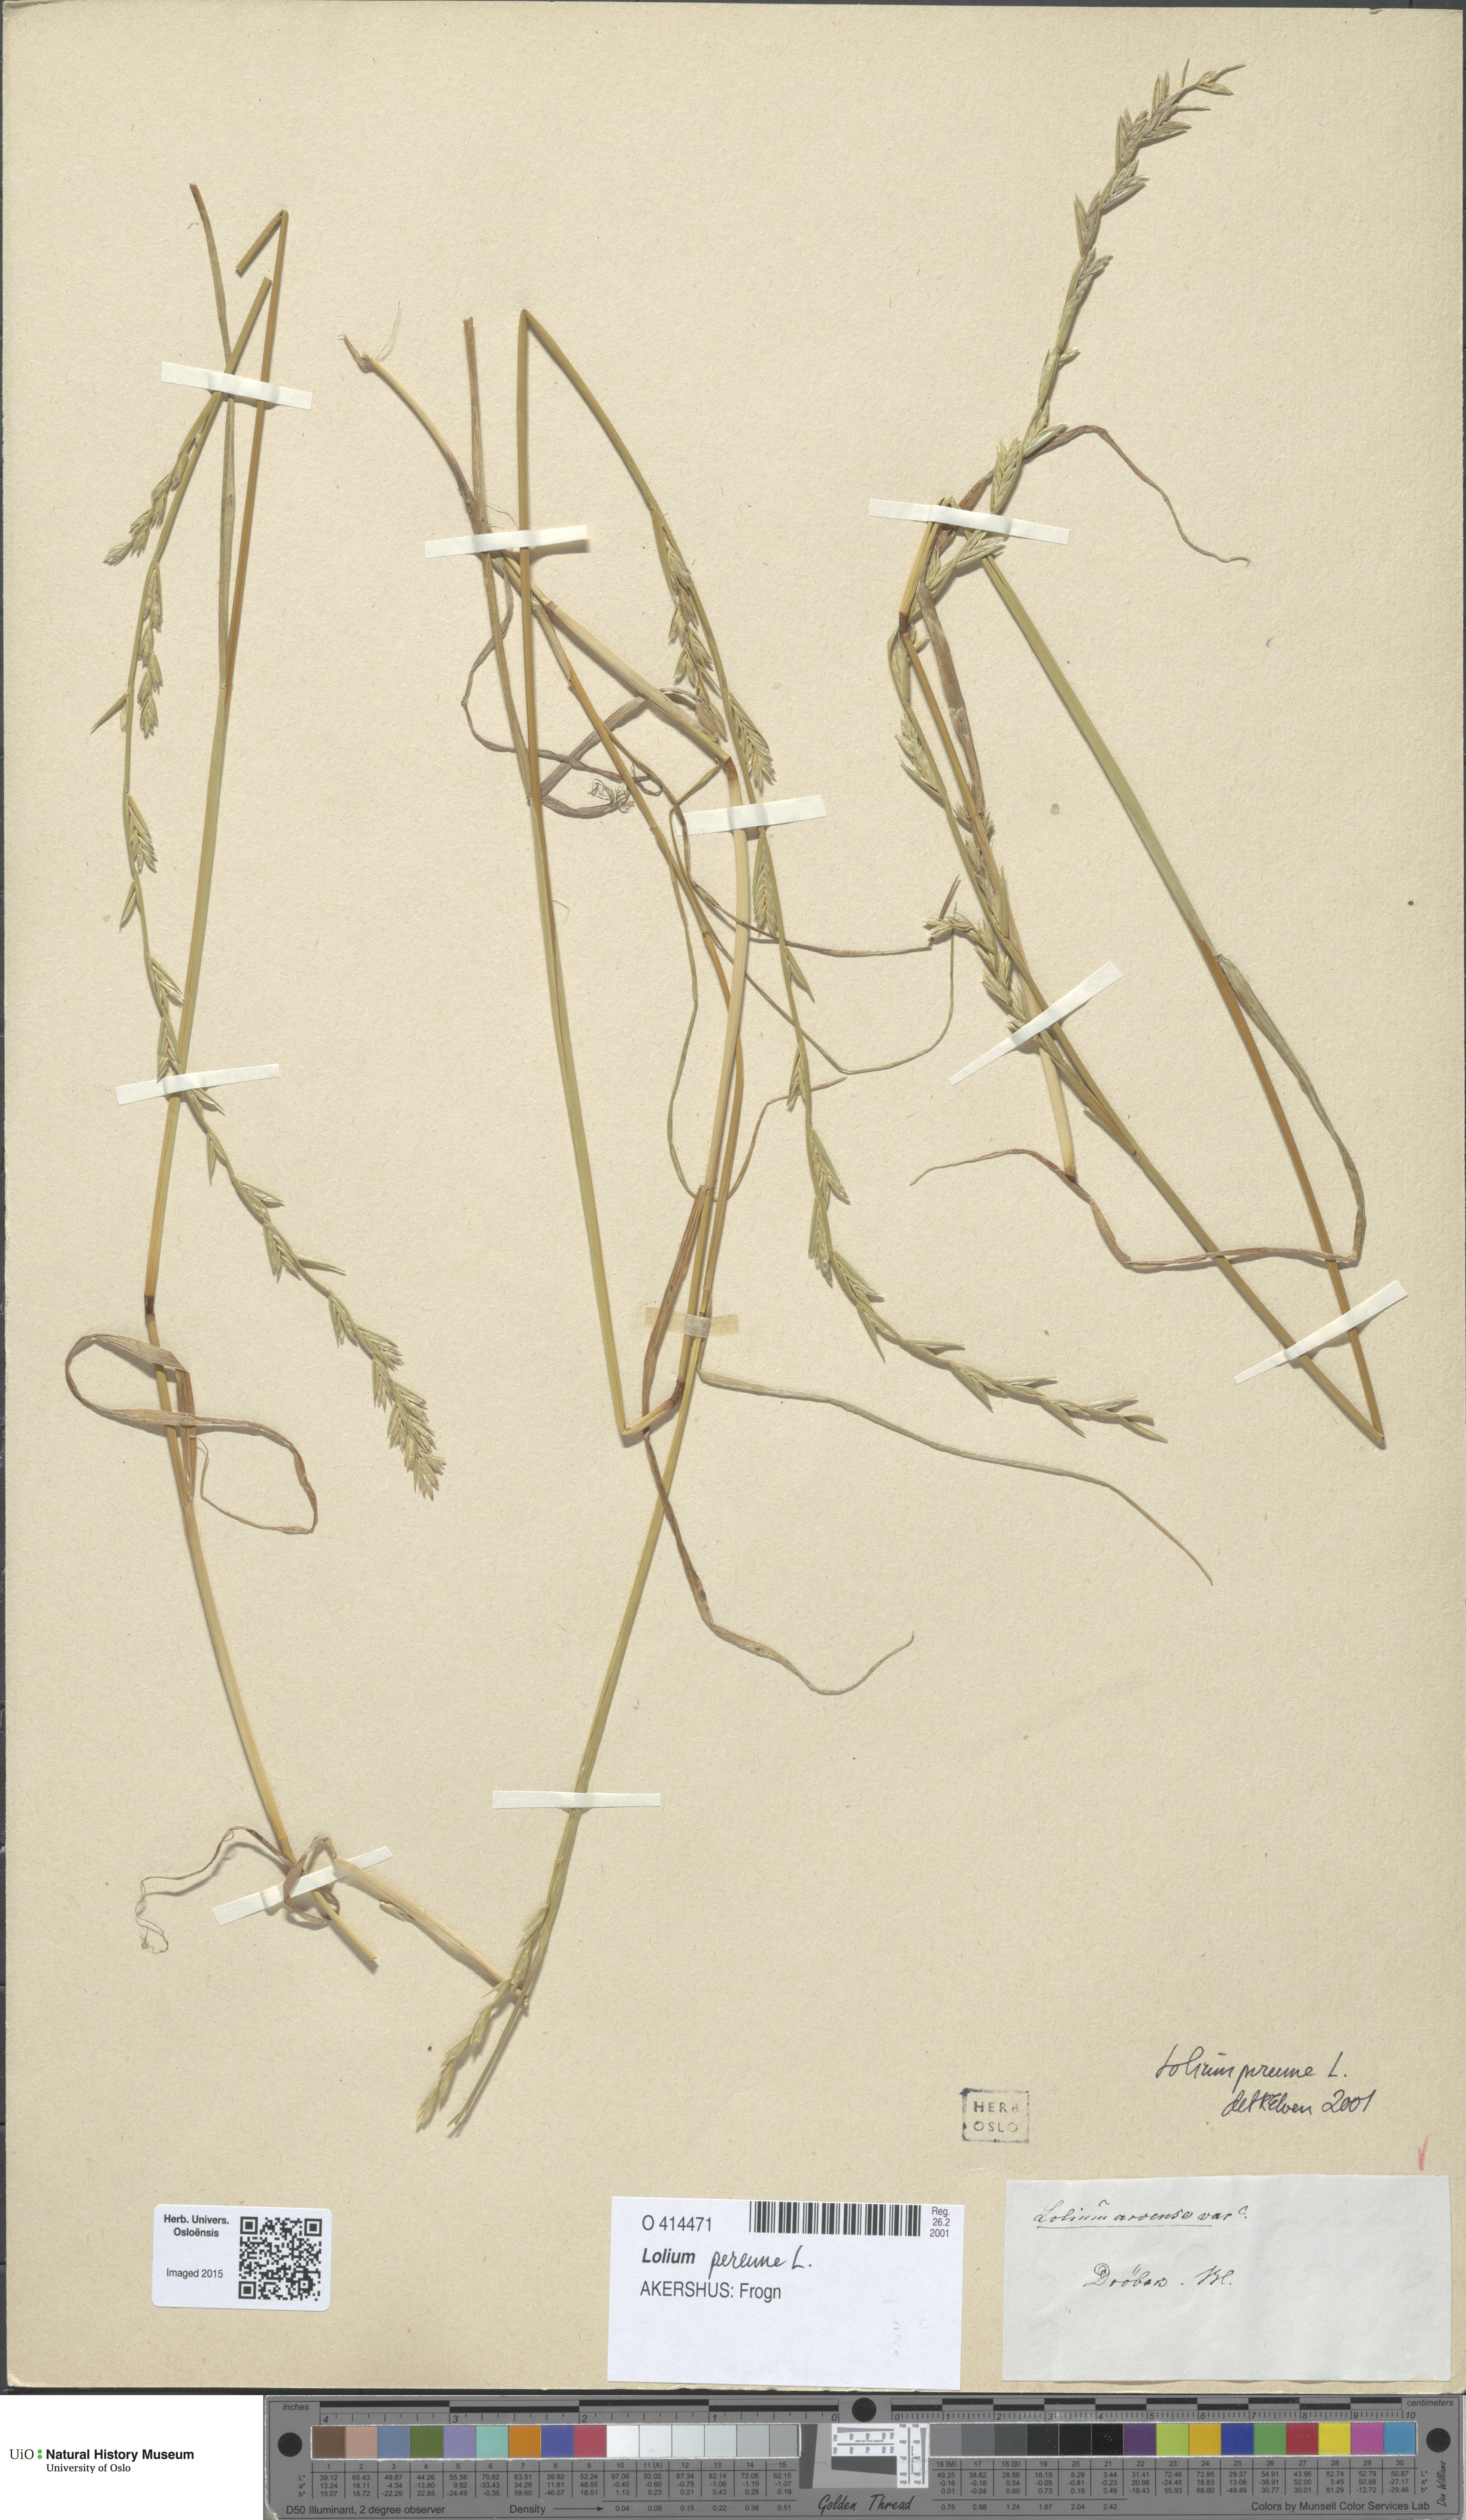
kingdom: Plantae
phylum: Tracheophyta
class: Liliopsida
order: Poales
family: Poaceae
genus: Lolium
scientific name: Lolium perenne
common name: Perennial ryegrass
